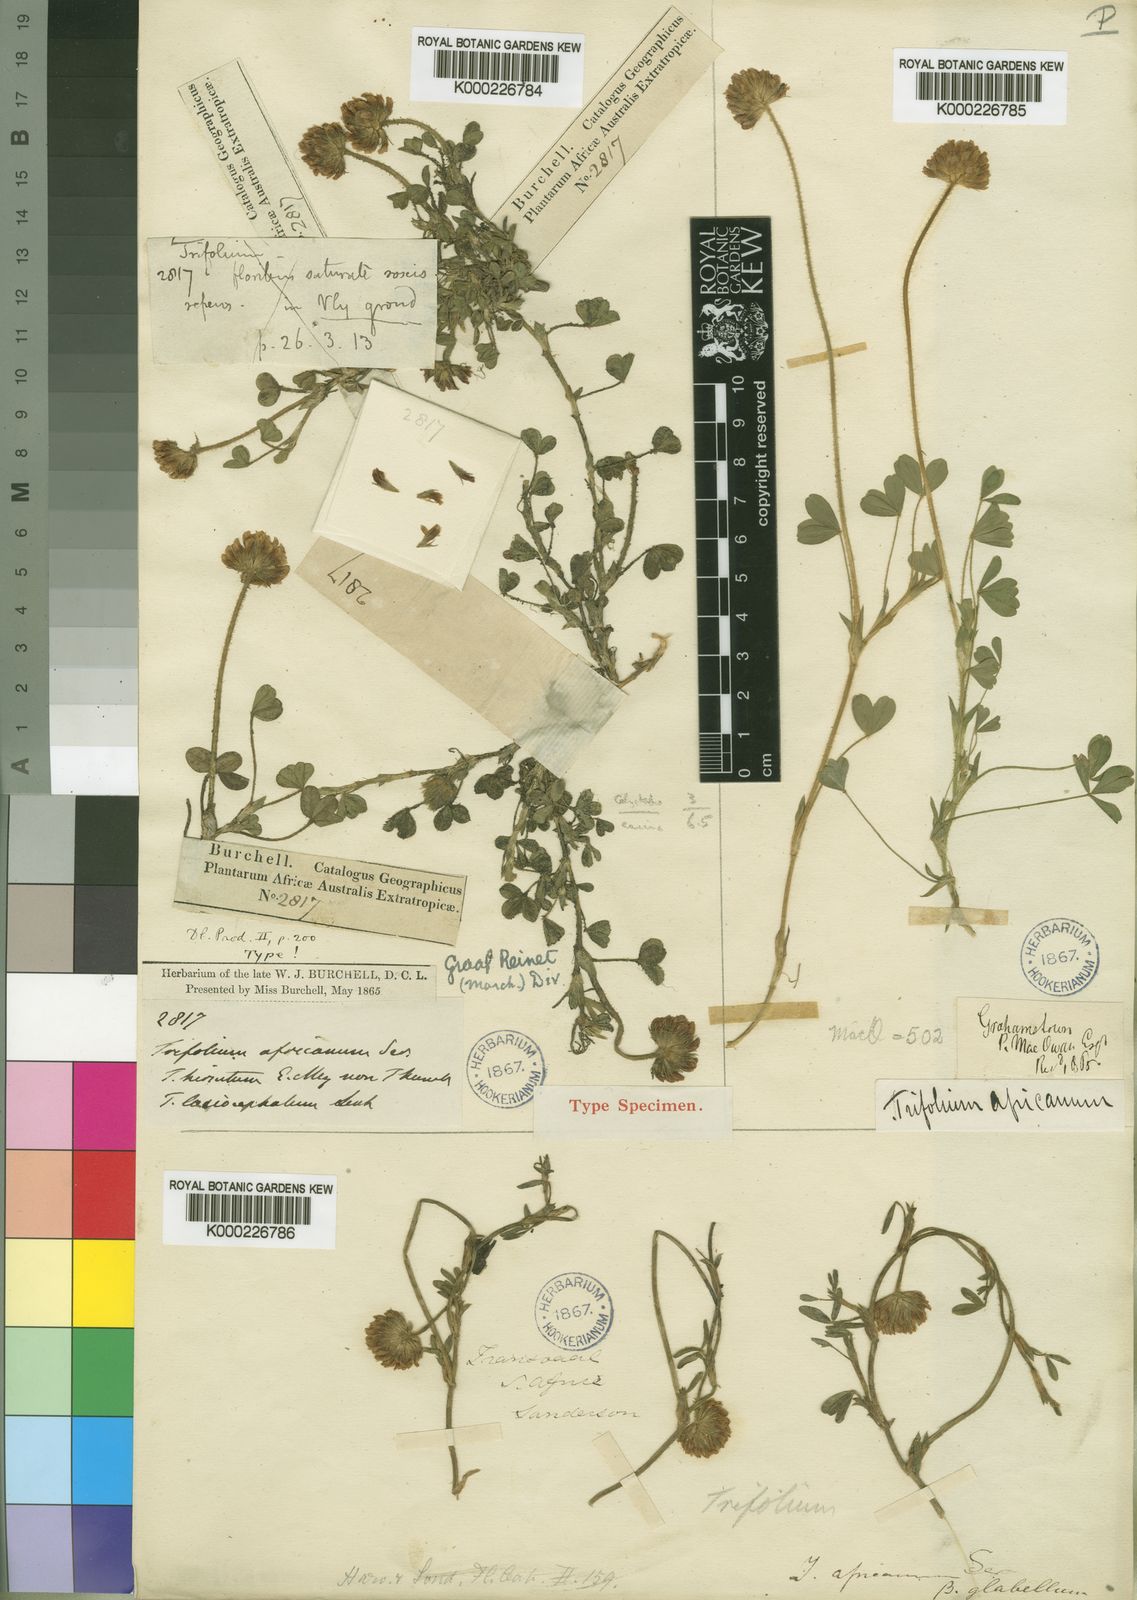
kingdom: Plantae
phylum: Tracheophyta
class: Magnoliopsida
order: Fabales
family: Fabaceae
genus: Trifolium
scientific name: Trifolium africanum
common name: Erasmus clover
